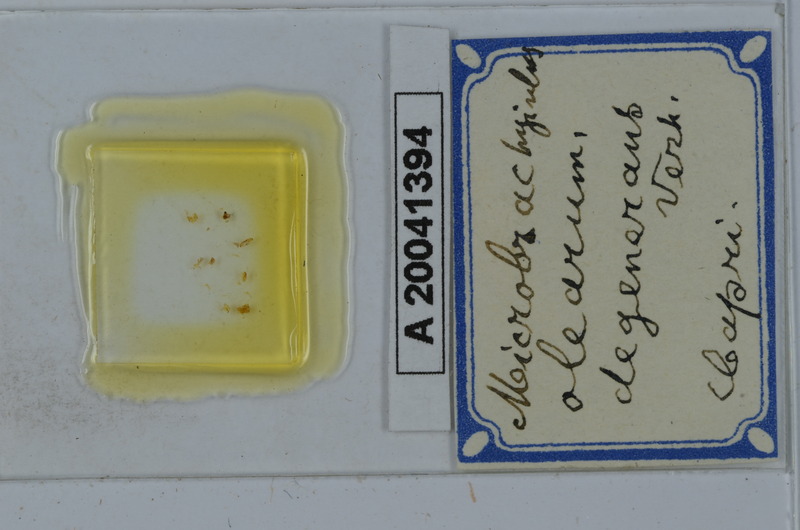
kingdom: Animalia
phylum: Arthropoda
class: Diplopoda
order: Julida
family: Julidae
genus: Microbrachyiulus
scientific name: Microbrachyiulus olearum
